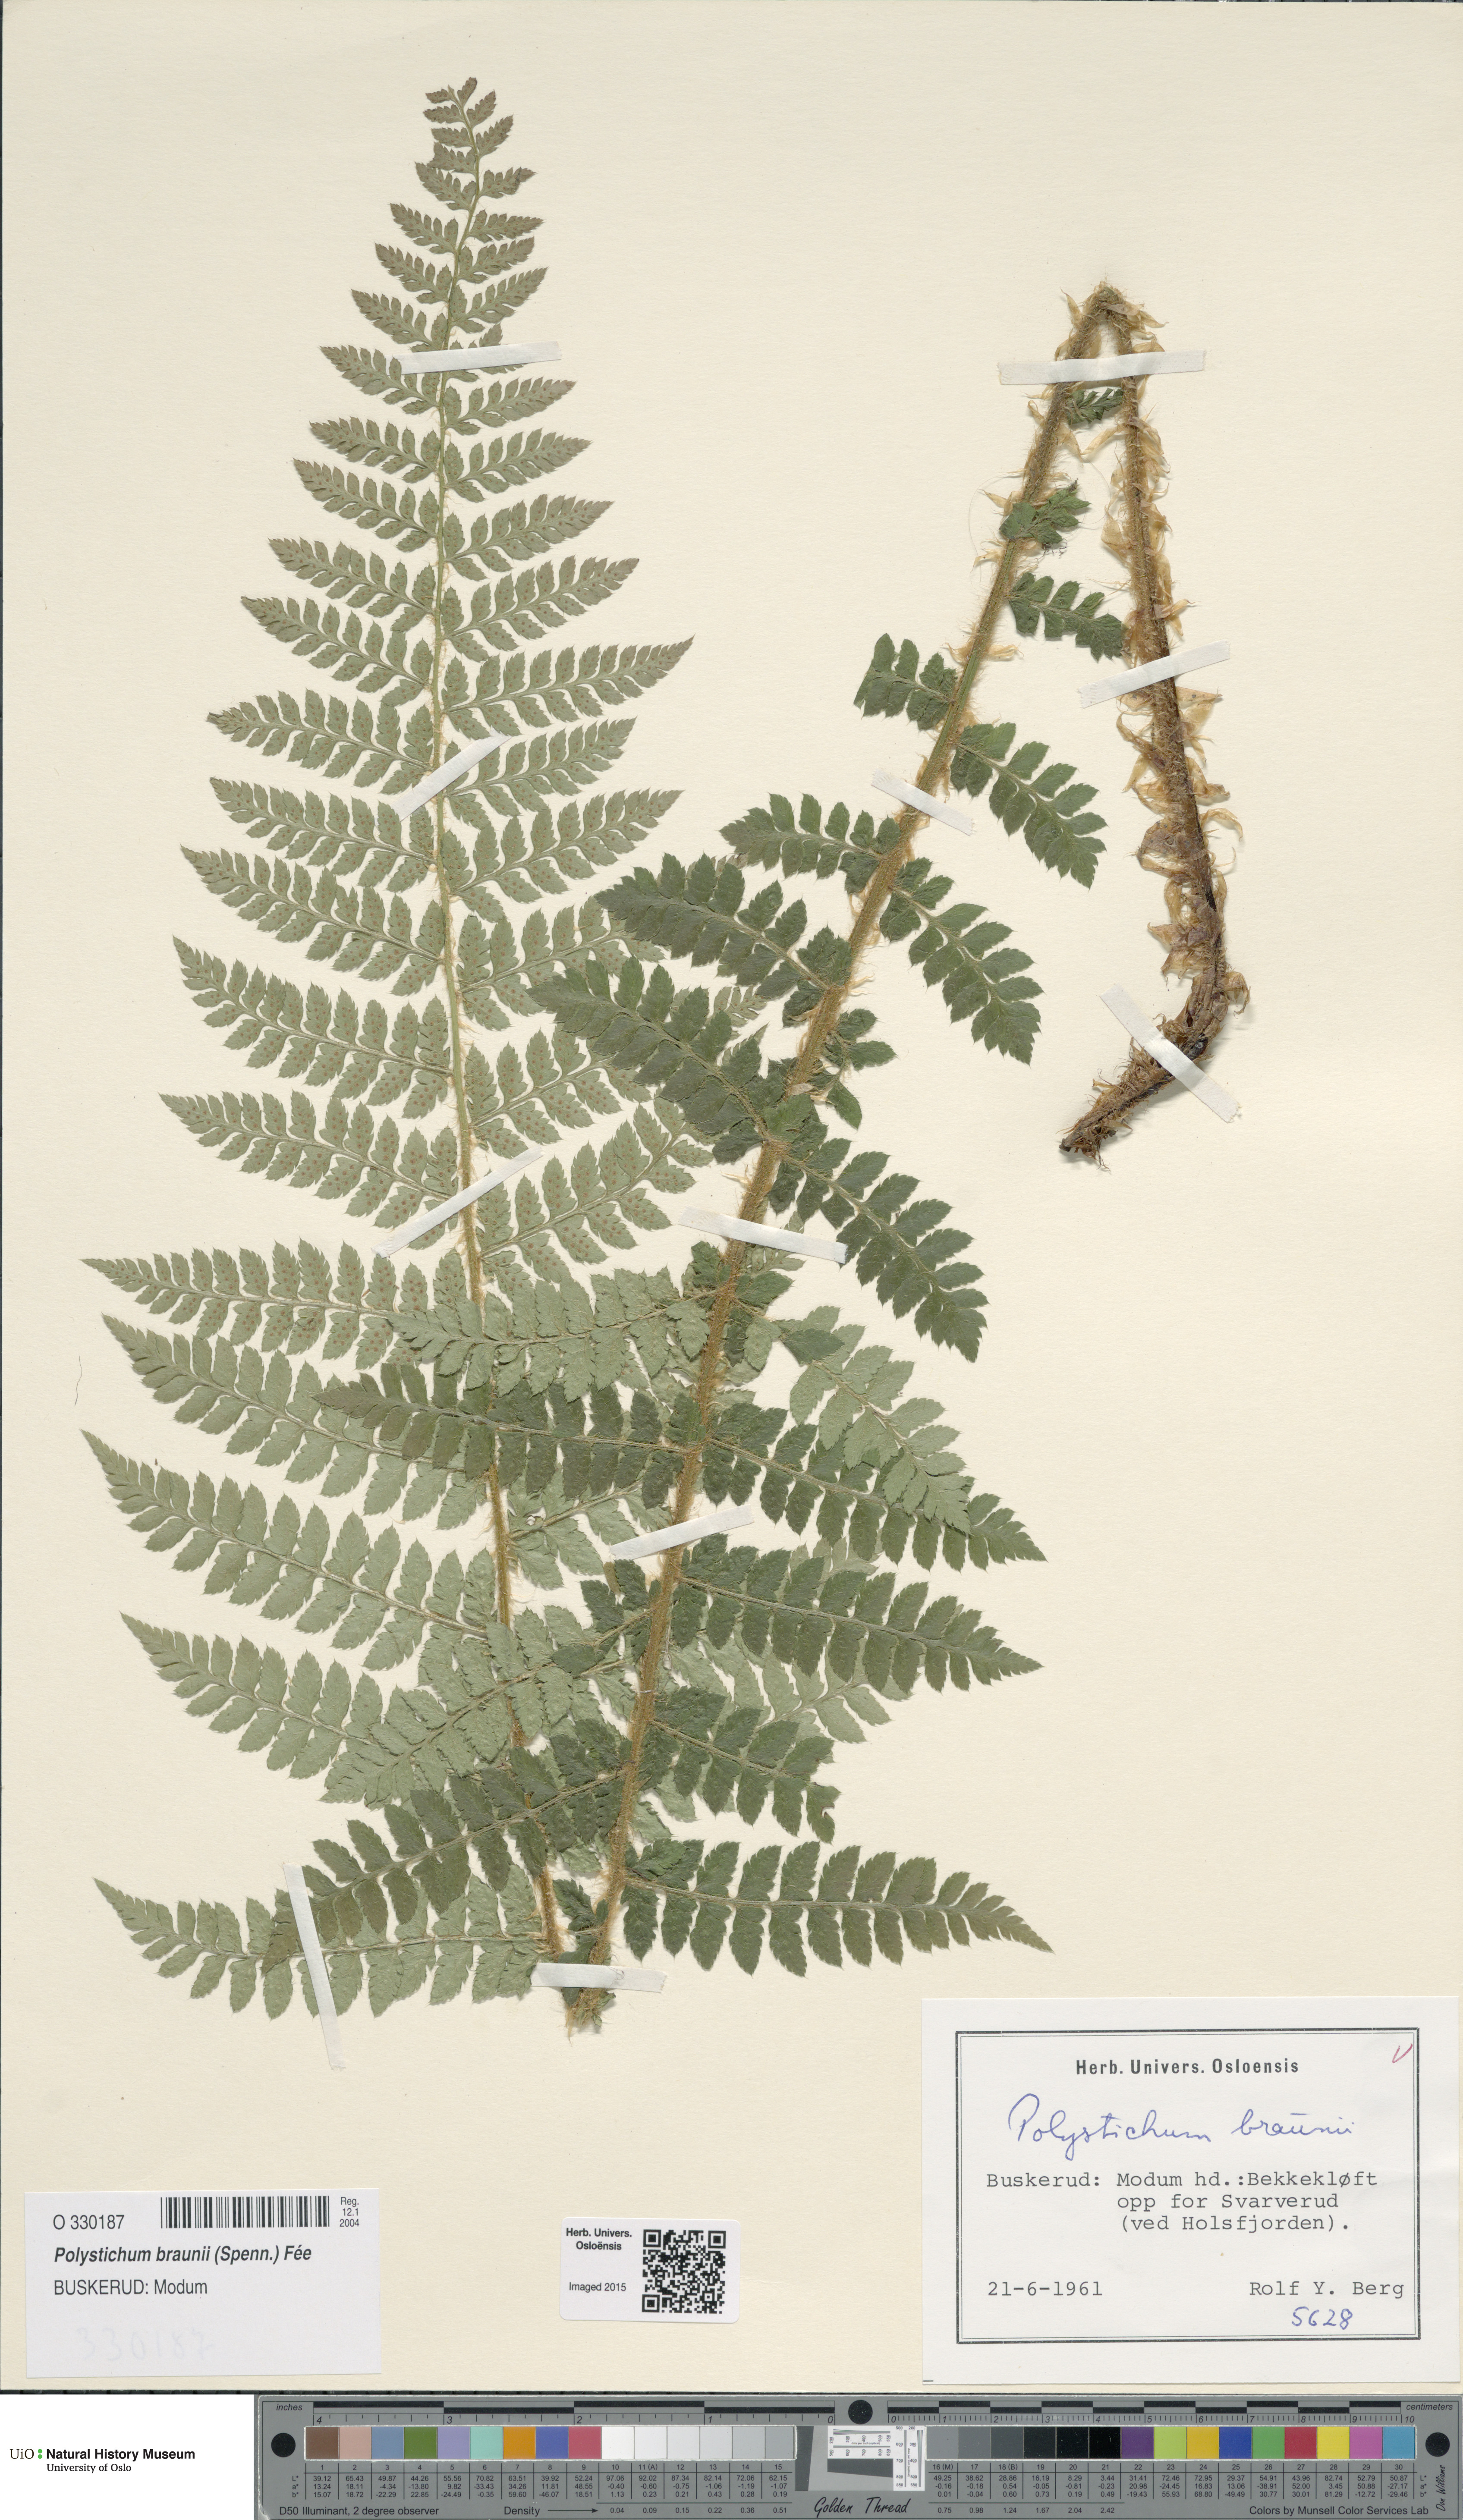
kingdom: Plantae
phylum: Tracheophyta
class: Polypodiopsida
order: Polypodiales
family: Dryopteridaceae
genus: Polystichum
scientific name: Polystichum braunii
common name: Braun's holly fern
